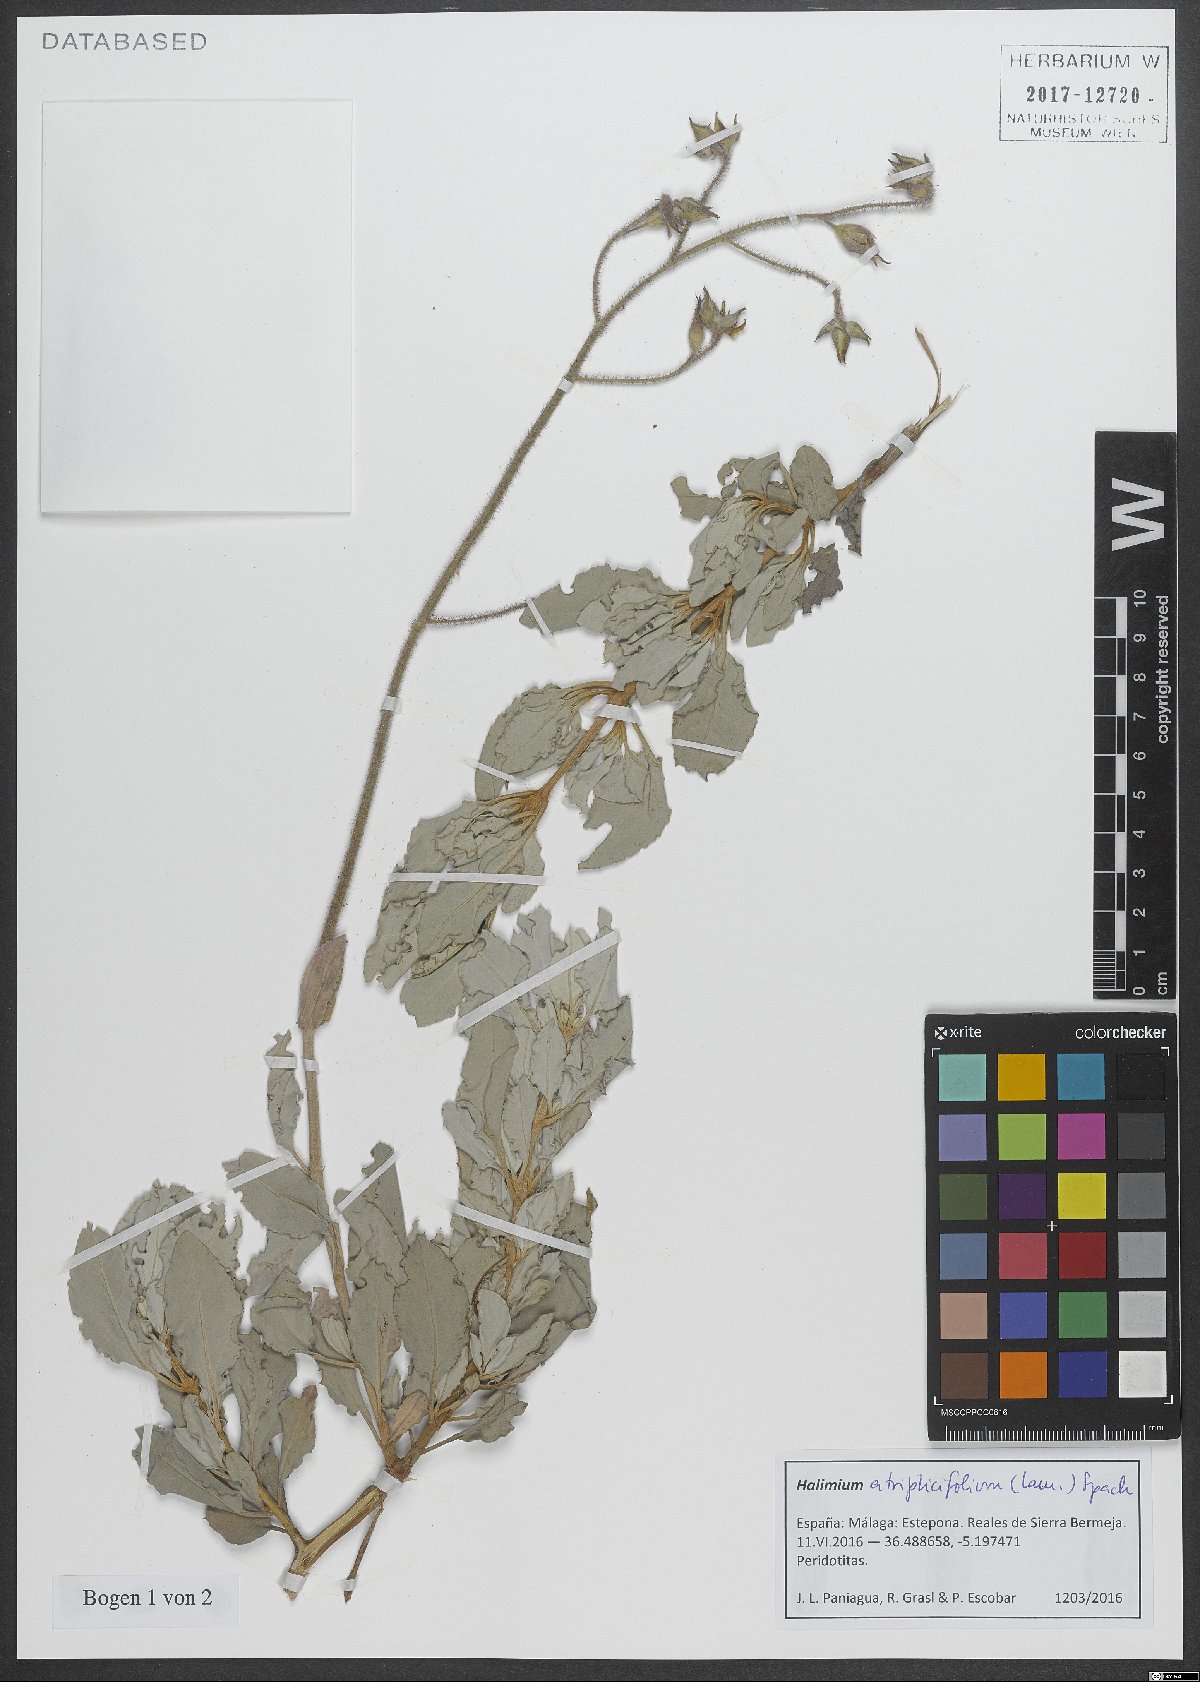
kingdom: Plantae
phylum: Tracheophyta
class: Magnoliopsida
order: Malvales
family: Cistaceae
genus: Halimium
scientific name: Halimium atriplicifolium
